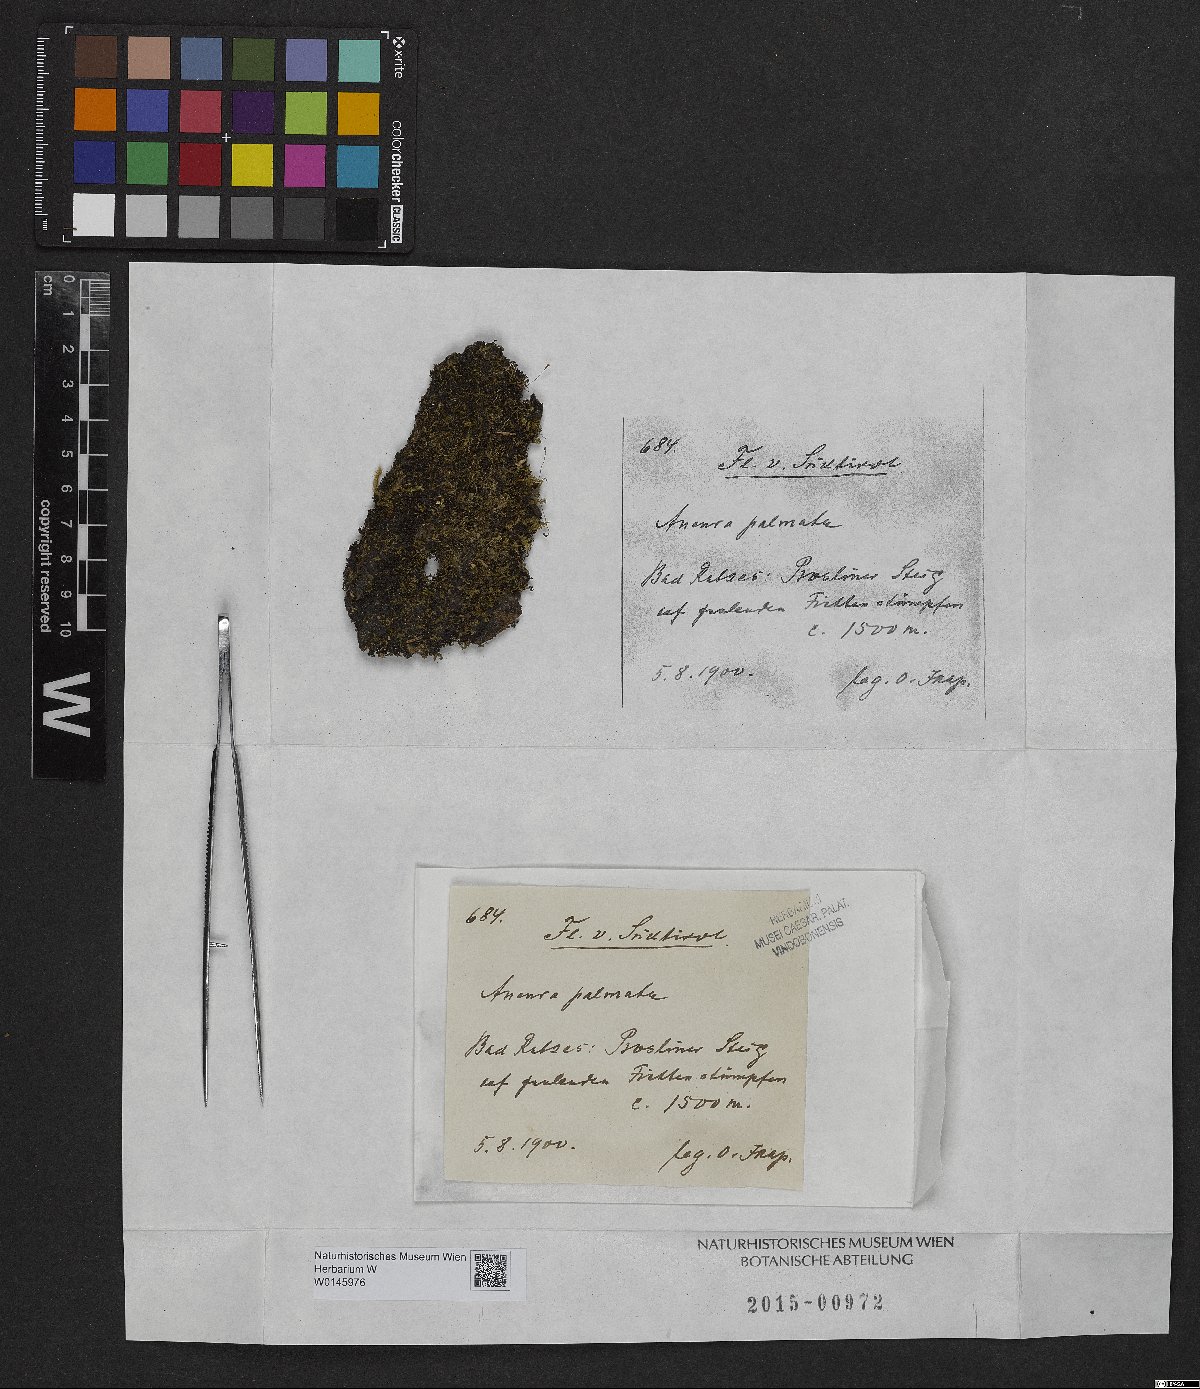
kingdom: Plantae
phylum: Marchantiophyta
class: Jungermanniopsida
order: Metzgeriales
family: Aneuraceae
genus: Riccardia
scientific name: Riccardia palmata
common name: Palmate germanderwort
